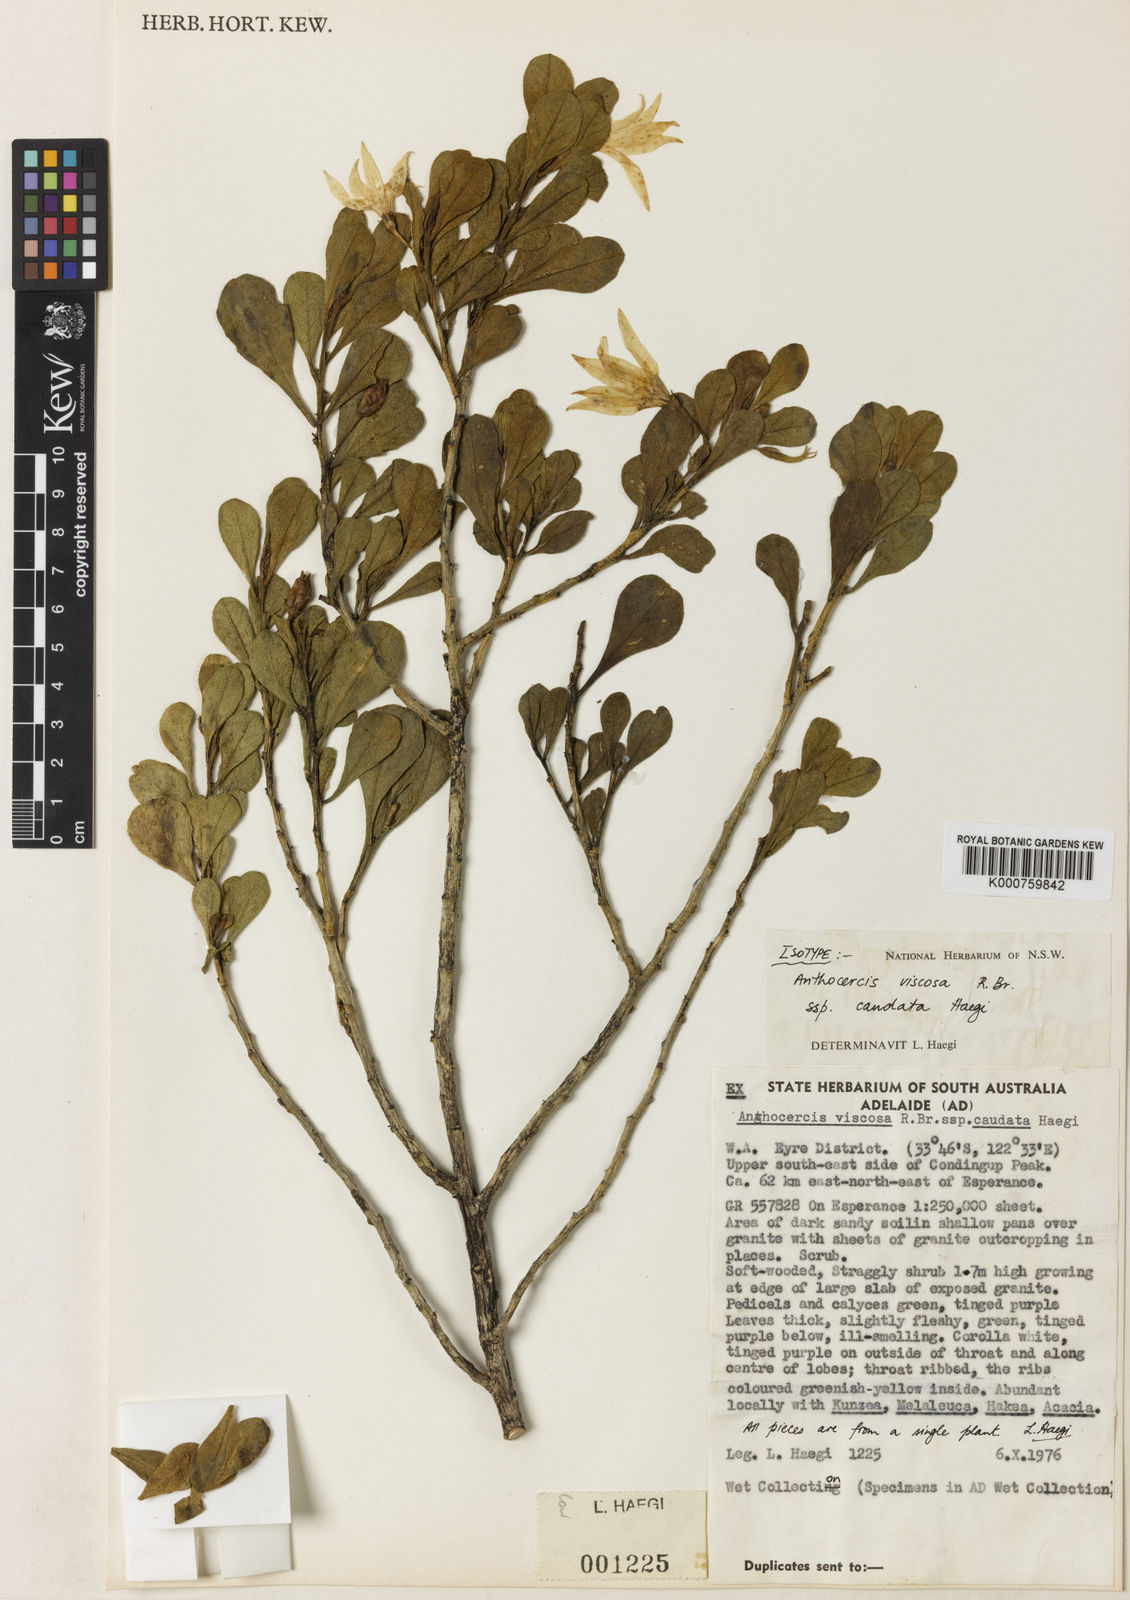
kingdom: Plantae
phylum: Tracheophyta
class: Magnoliopsida
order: Solanales
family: Solanaceae
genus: Anthocercis
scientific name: Anthocercis viscosa
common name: Sticky tailflower
